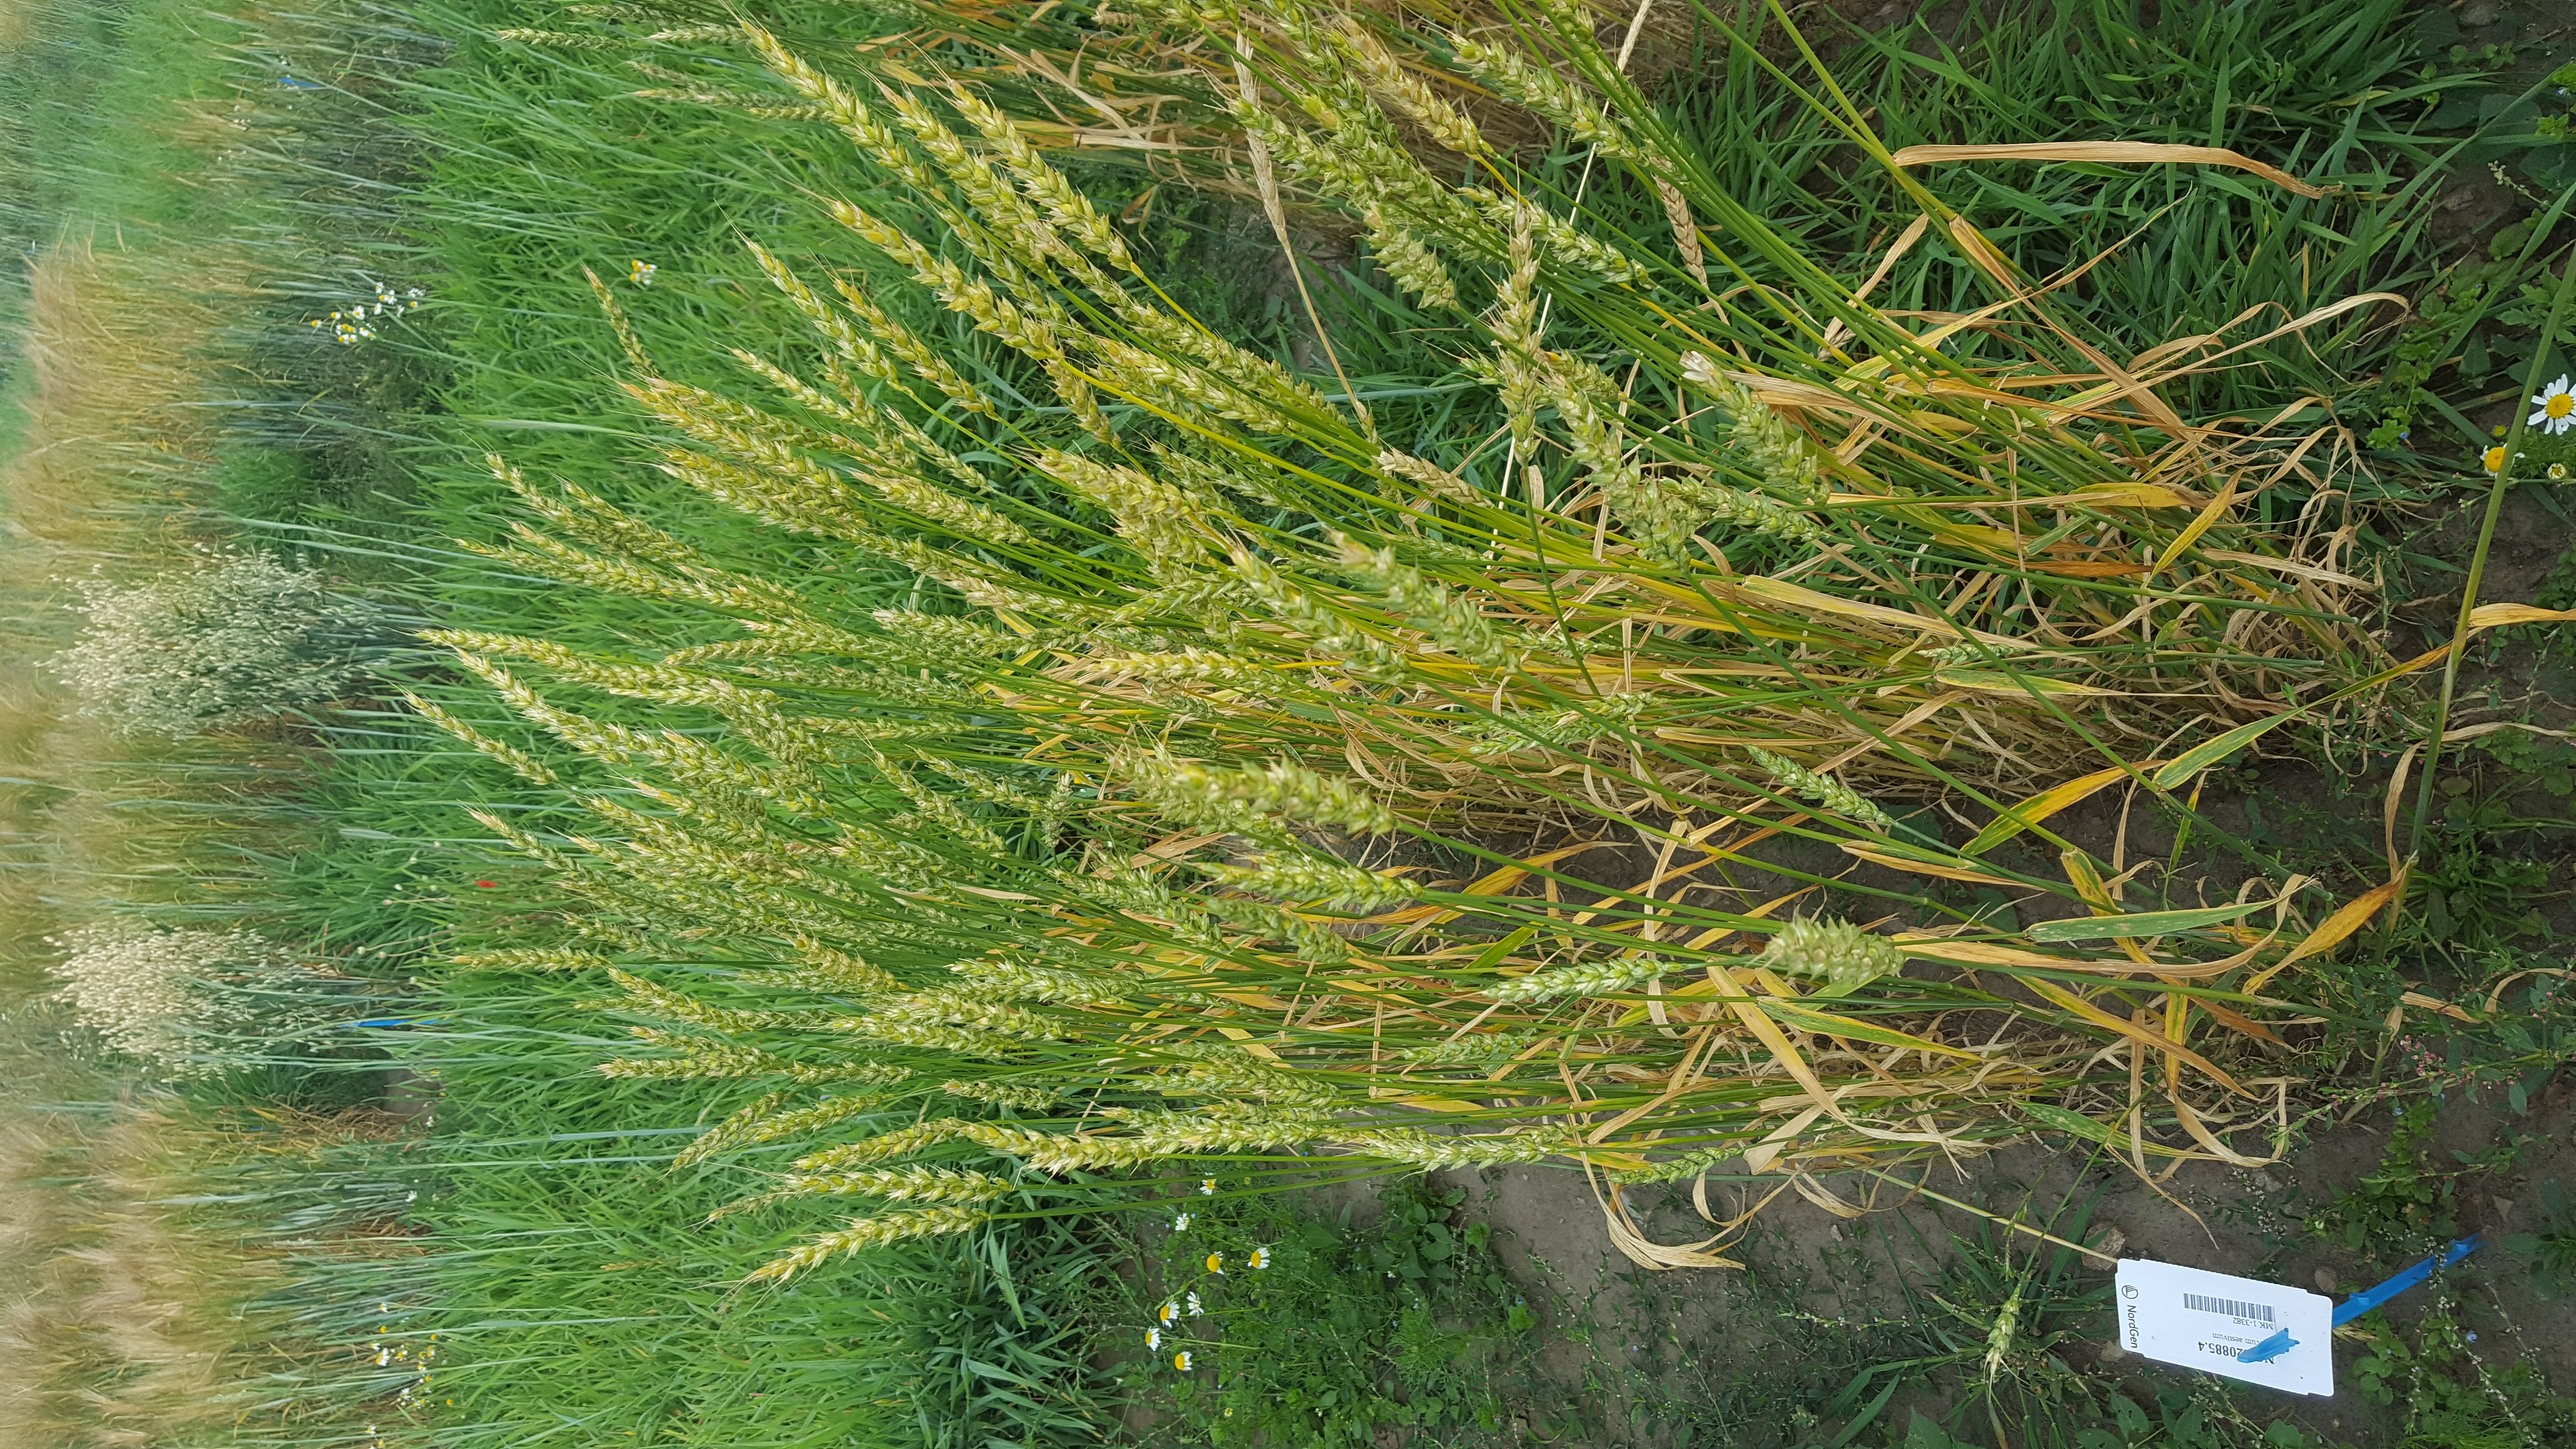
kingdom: Plantae
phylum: Tracheophyta
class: Liliopsida
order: Poales
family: Poaceae
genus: Triticum
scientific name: Triticum aestivum
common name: Common wheat
